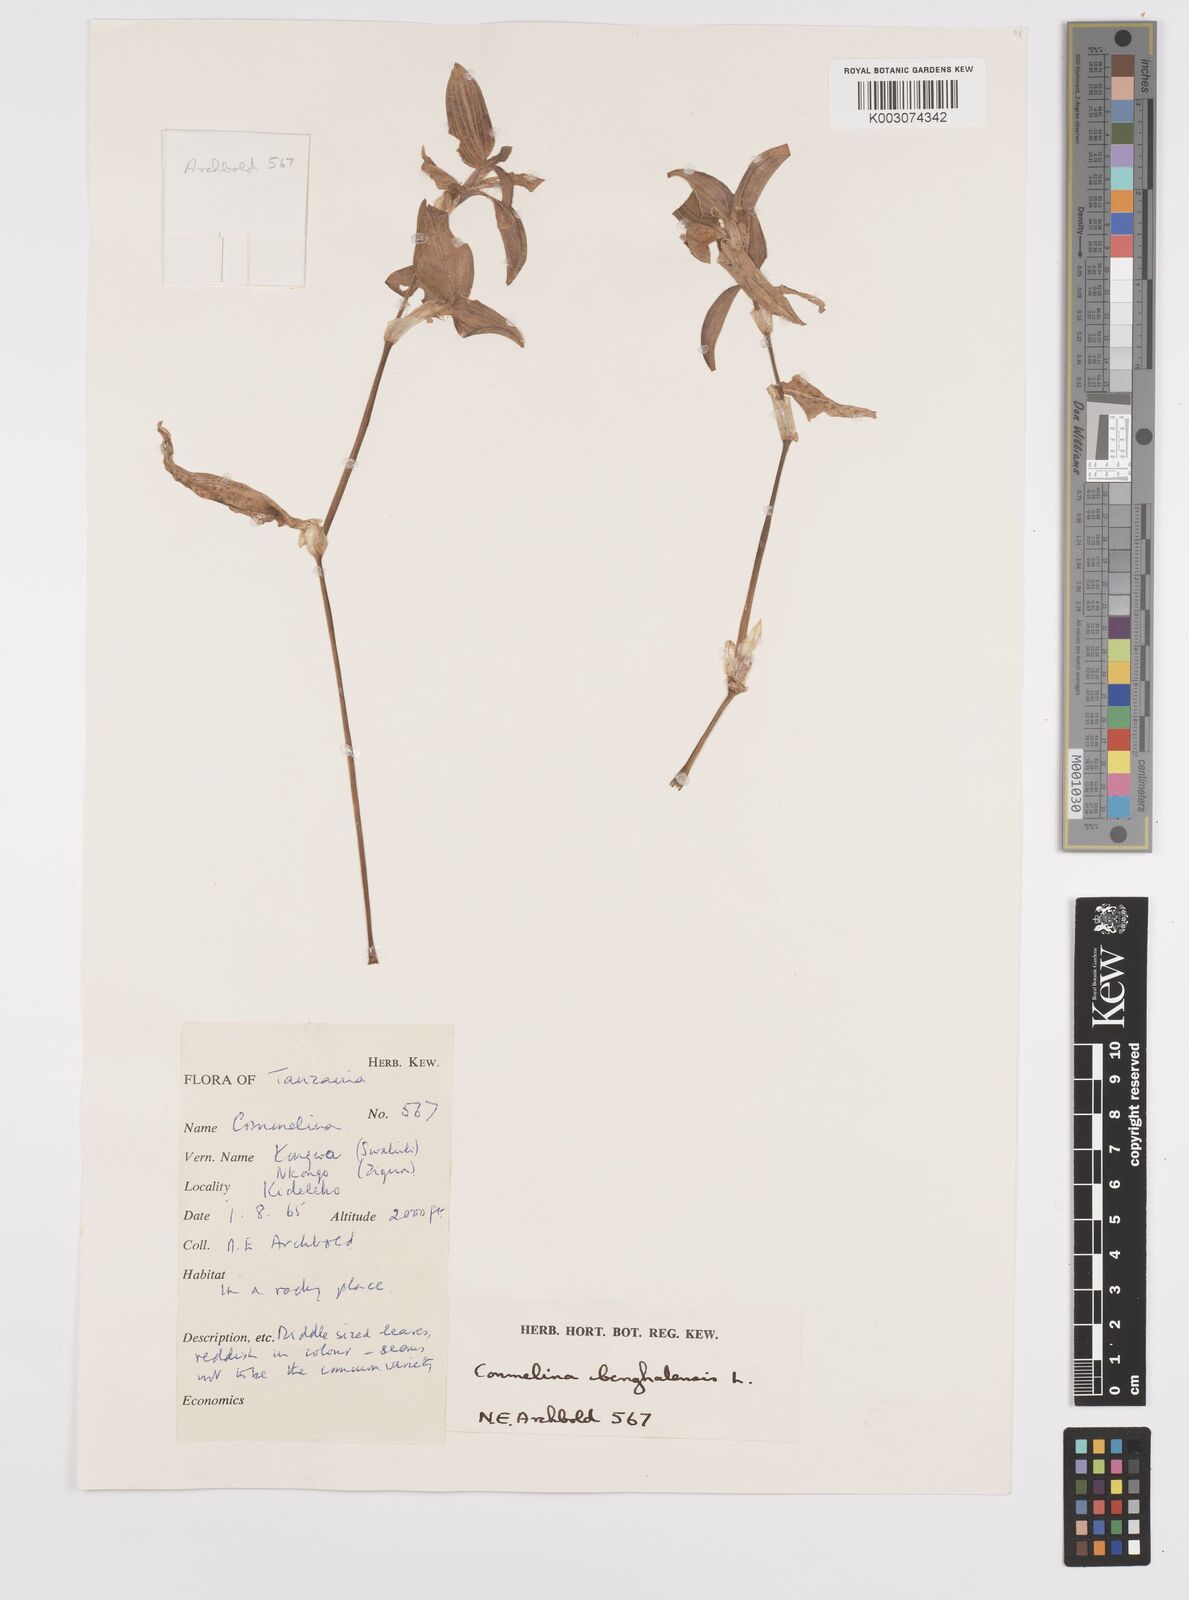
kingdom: Plantae
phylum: Tracheophyta
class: Liliopsida
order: Commelinales
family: Commelinaceae
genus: Commelina
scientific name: Commelina benghalensis
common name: Jio
